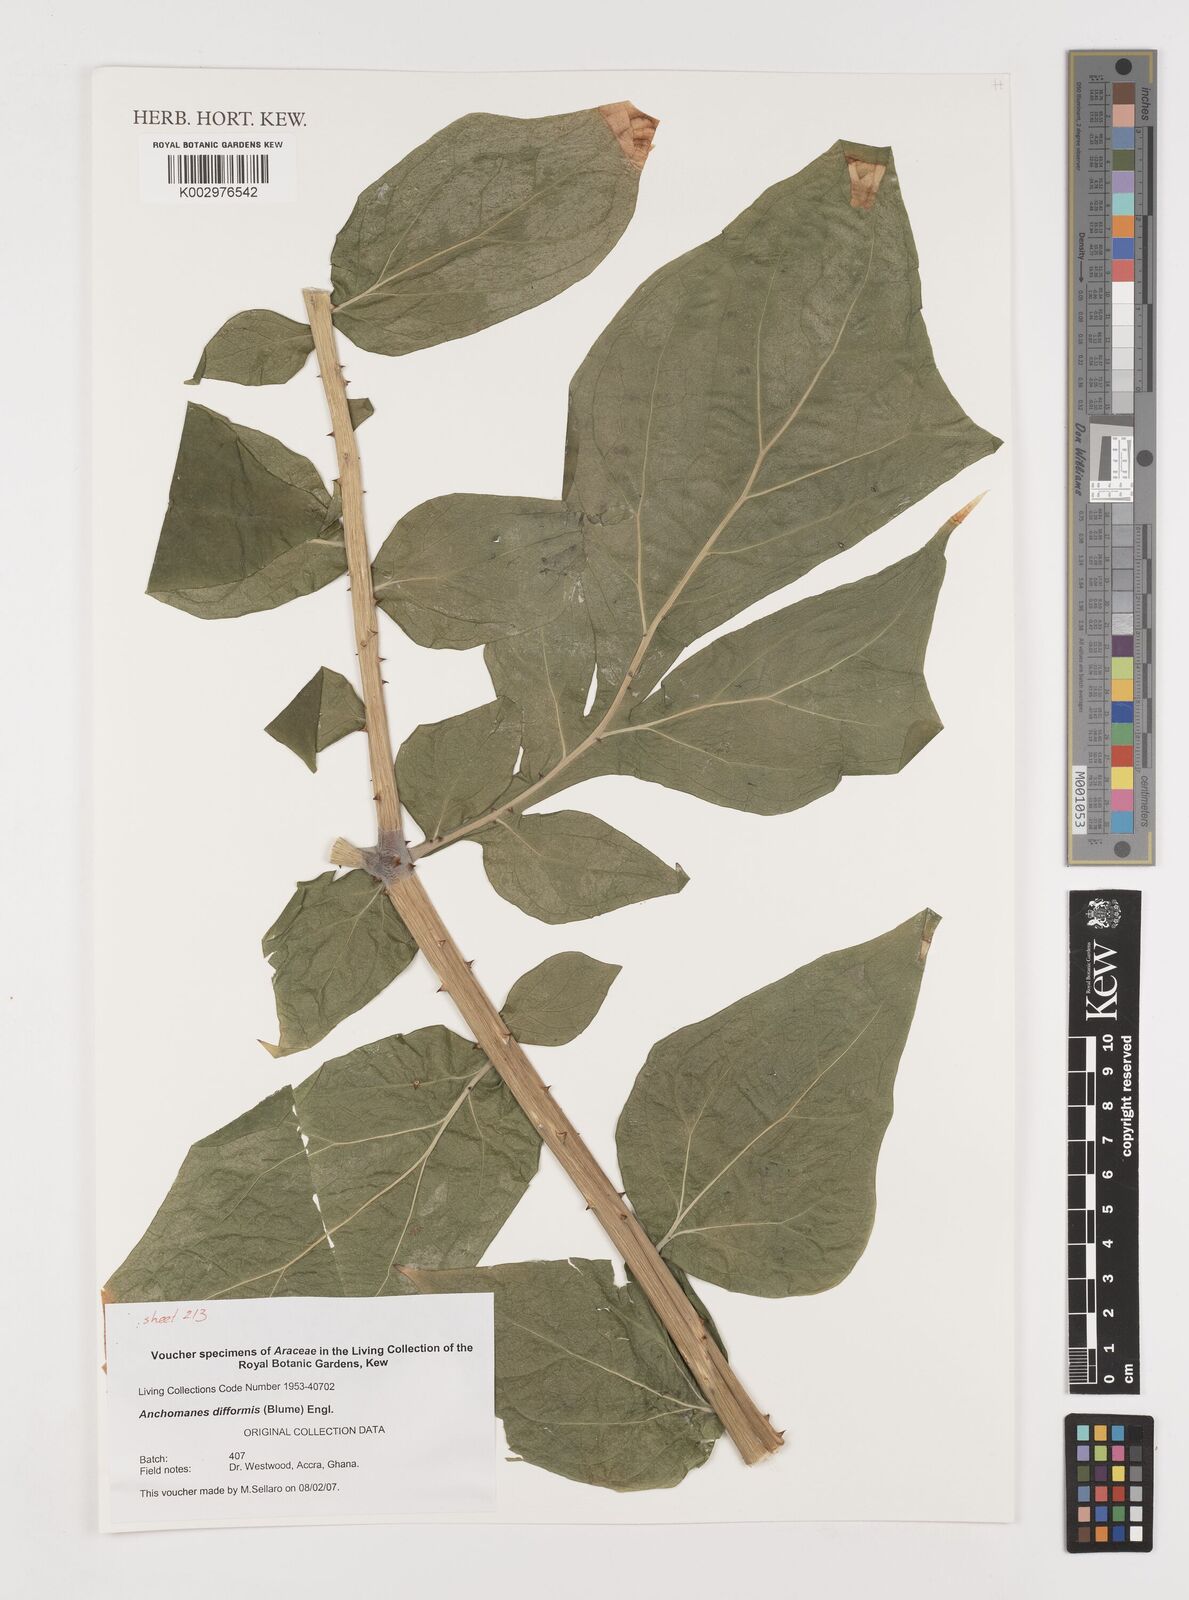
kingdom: Plantae
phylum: Tracheophyta
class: Liliopsida
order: Alismatales
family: Araceae
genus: Anchomanes
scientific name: Anchomanes difformis
